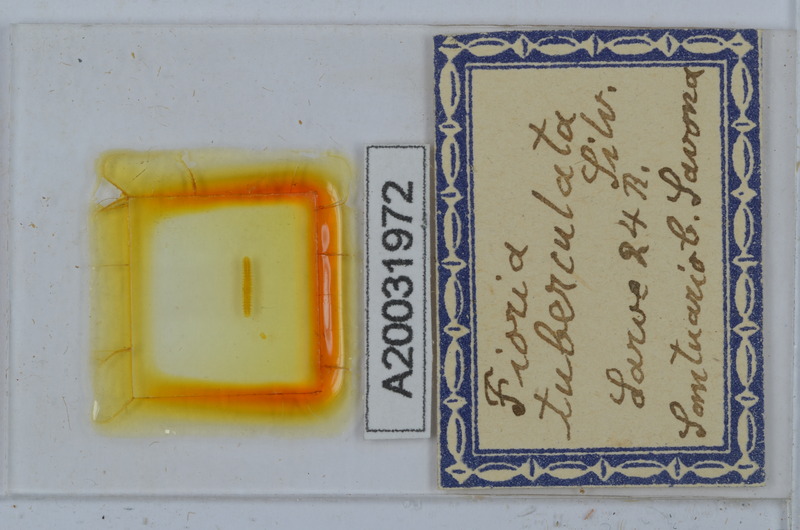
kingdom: Animalia
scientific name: Animalia
